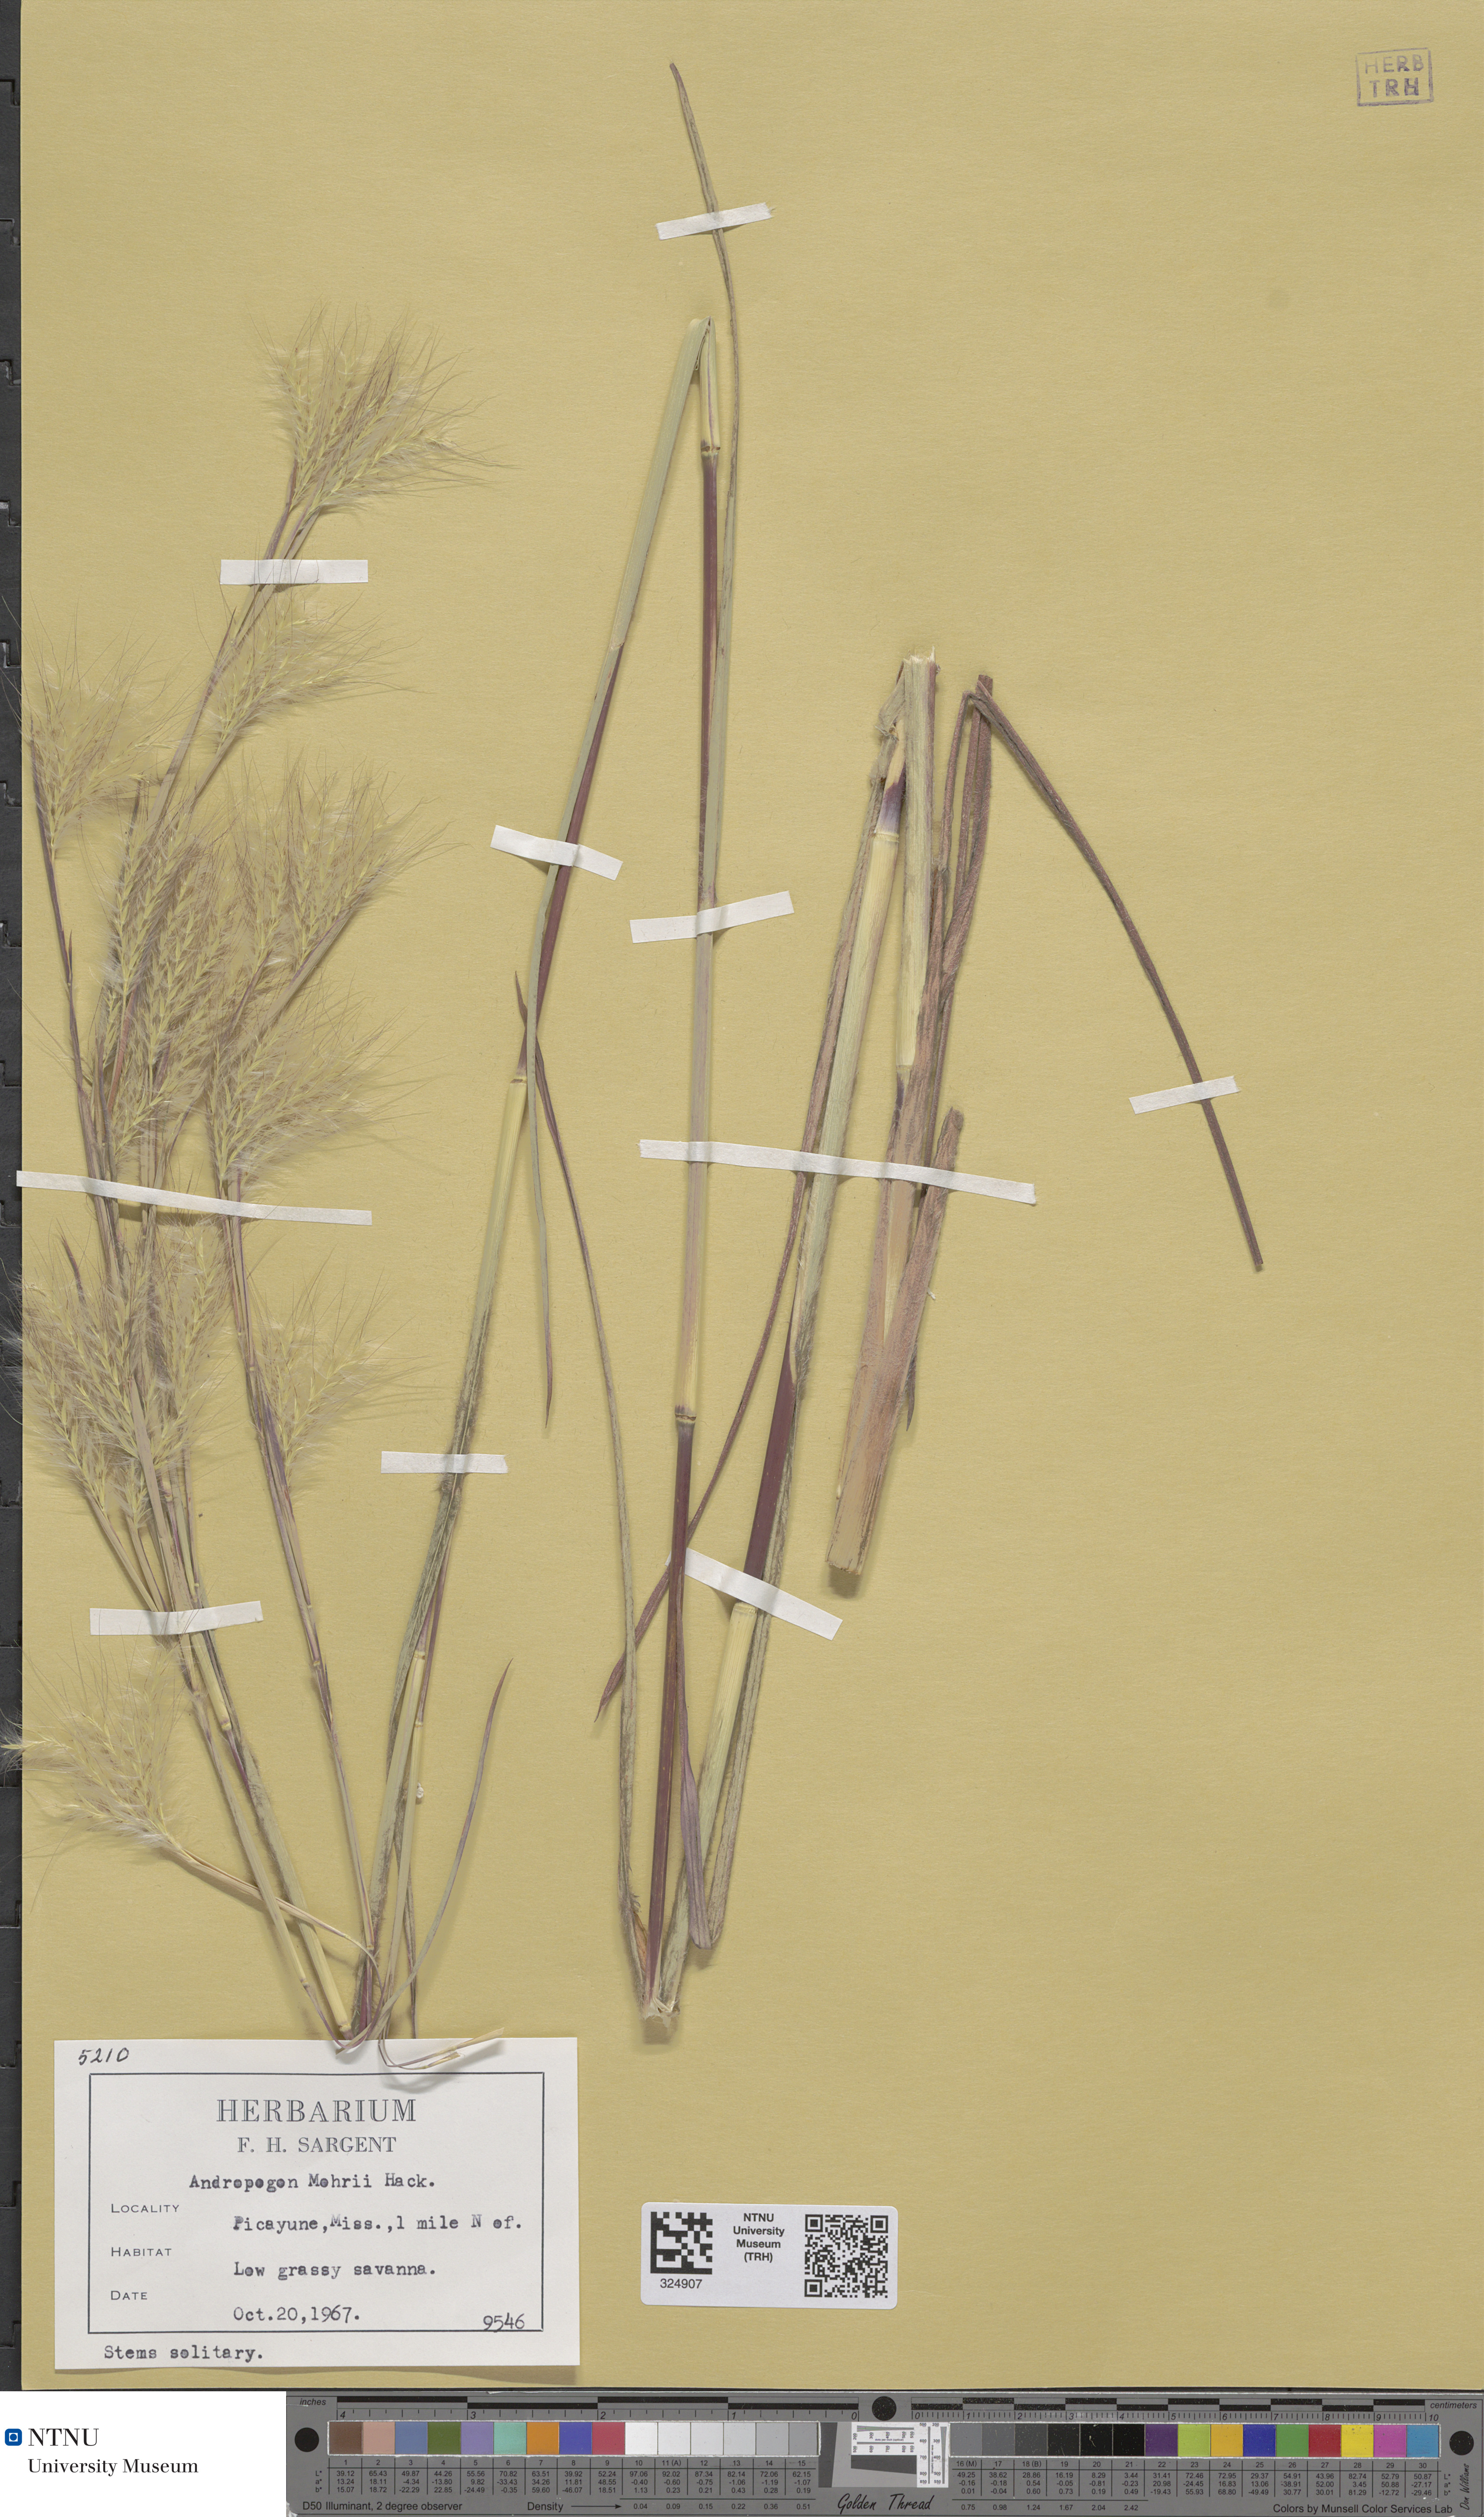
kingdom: Plantae
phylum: Tracheophyta
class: Liliopsida
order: Poales
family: Poaceae
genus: Andropogon
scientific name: Andropogon mohrii
